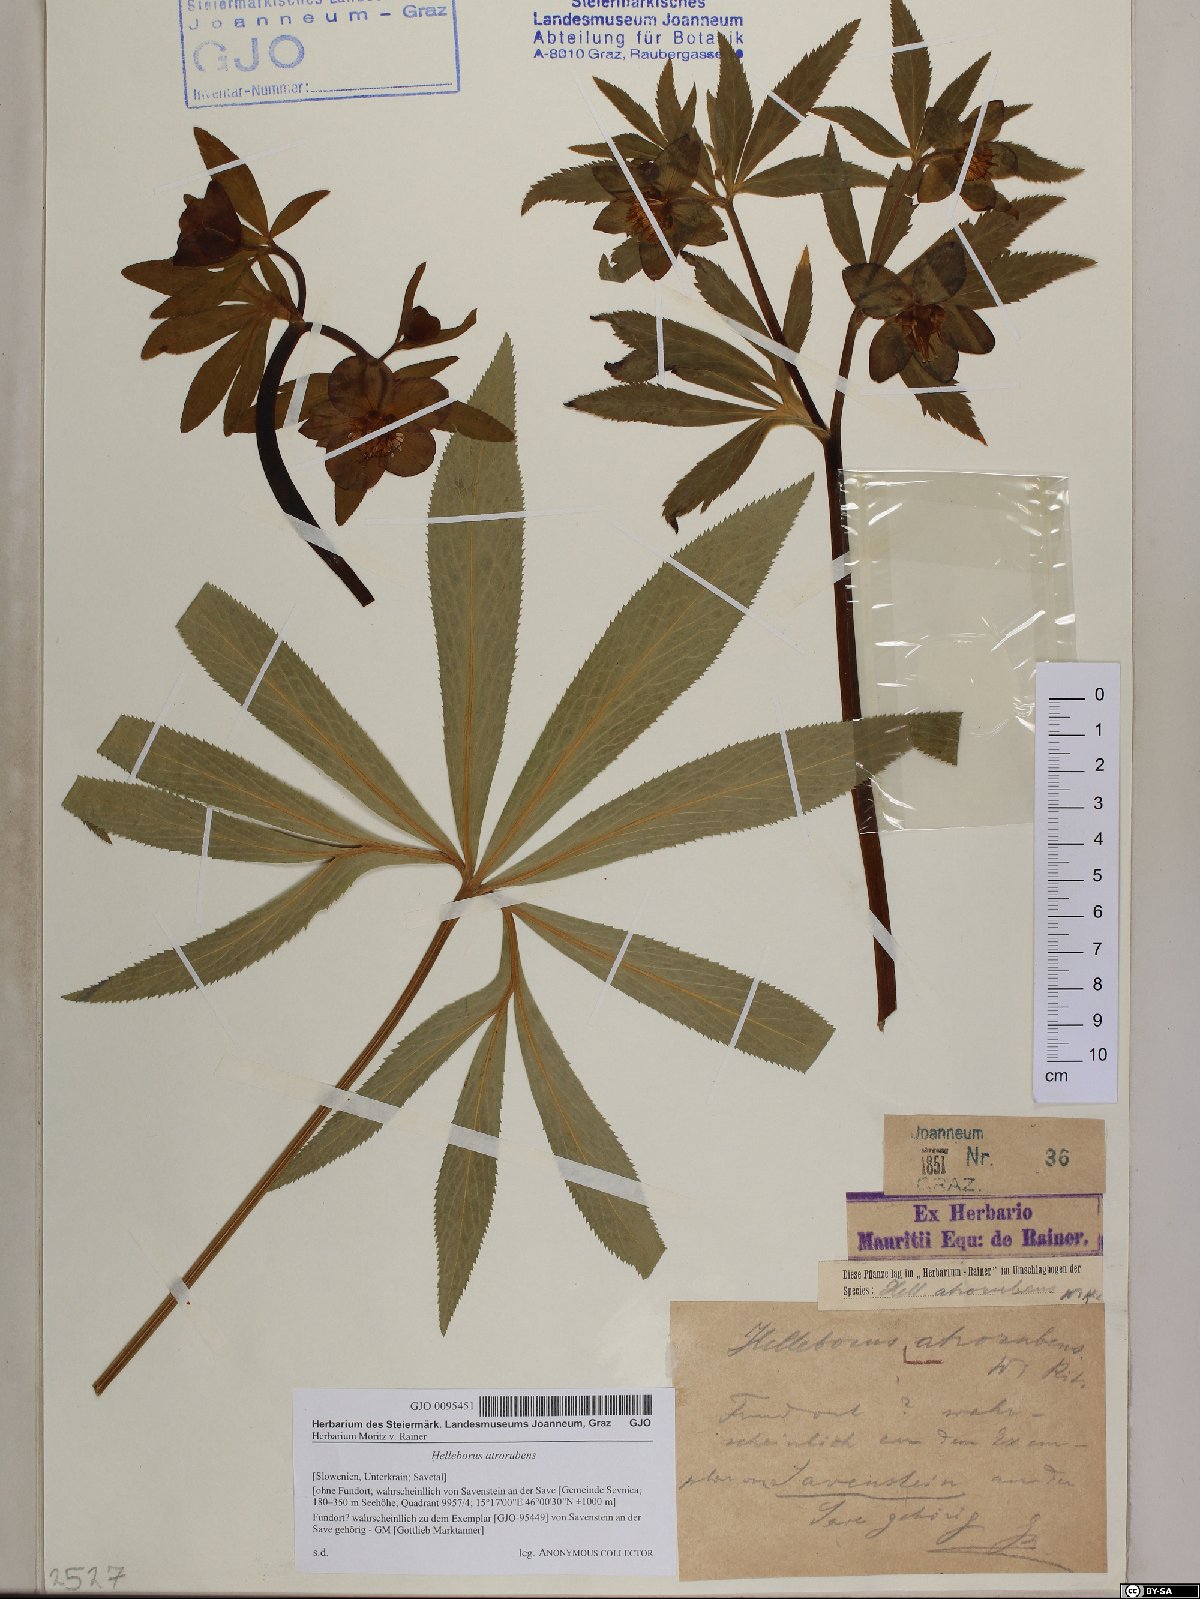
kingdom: Plantae
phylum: Tracheophyta
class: Magnoliopsida
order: Ranunculales
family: Ranunculaceae
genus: Helleborus
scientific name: Helleborus dumetorum
